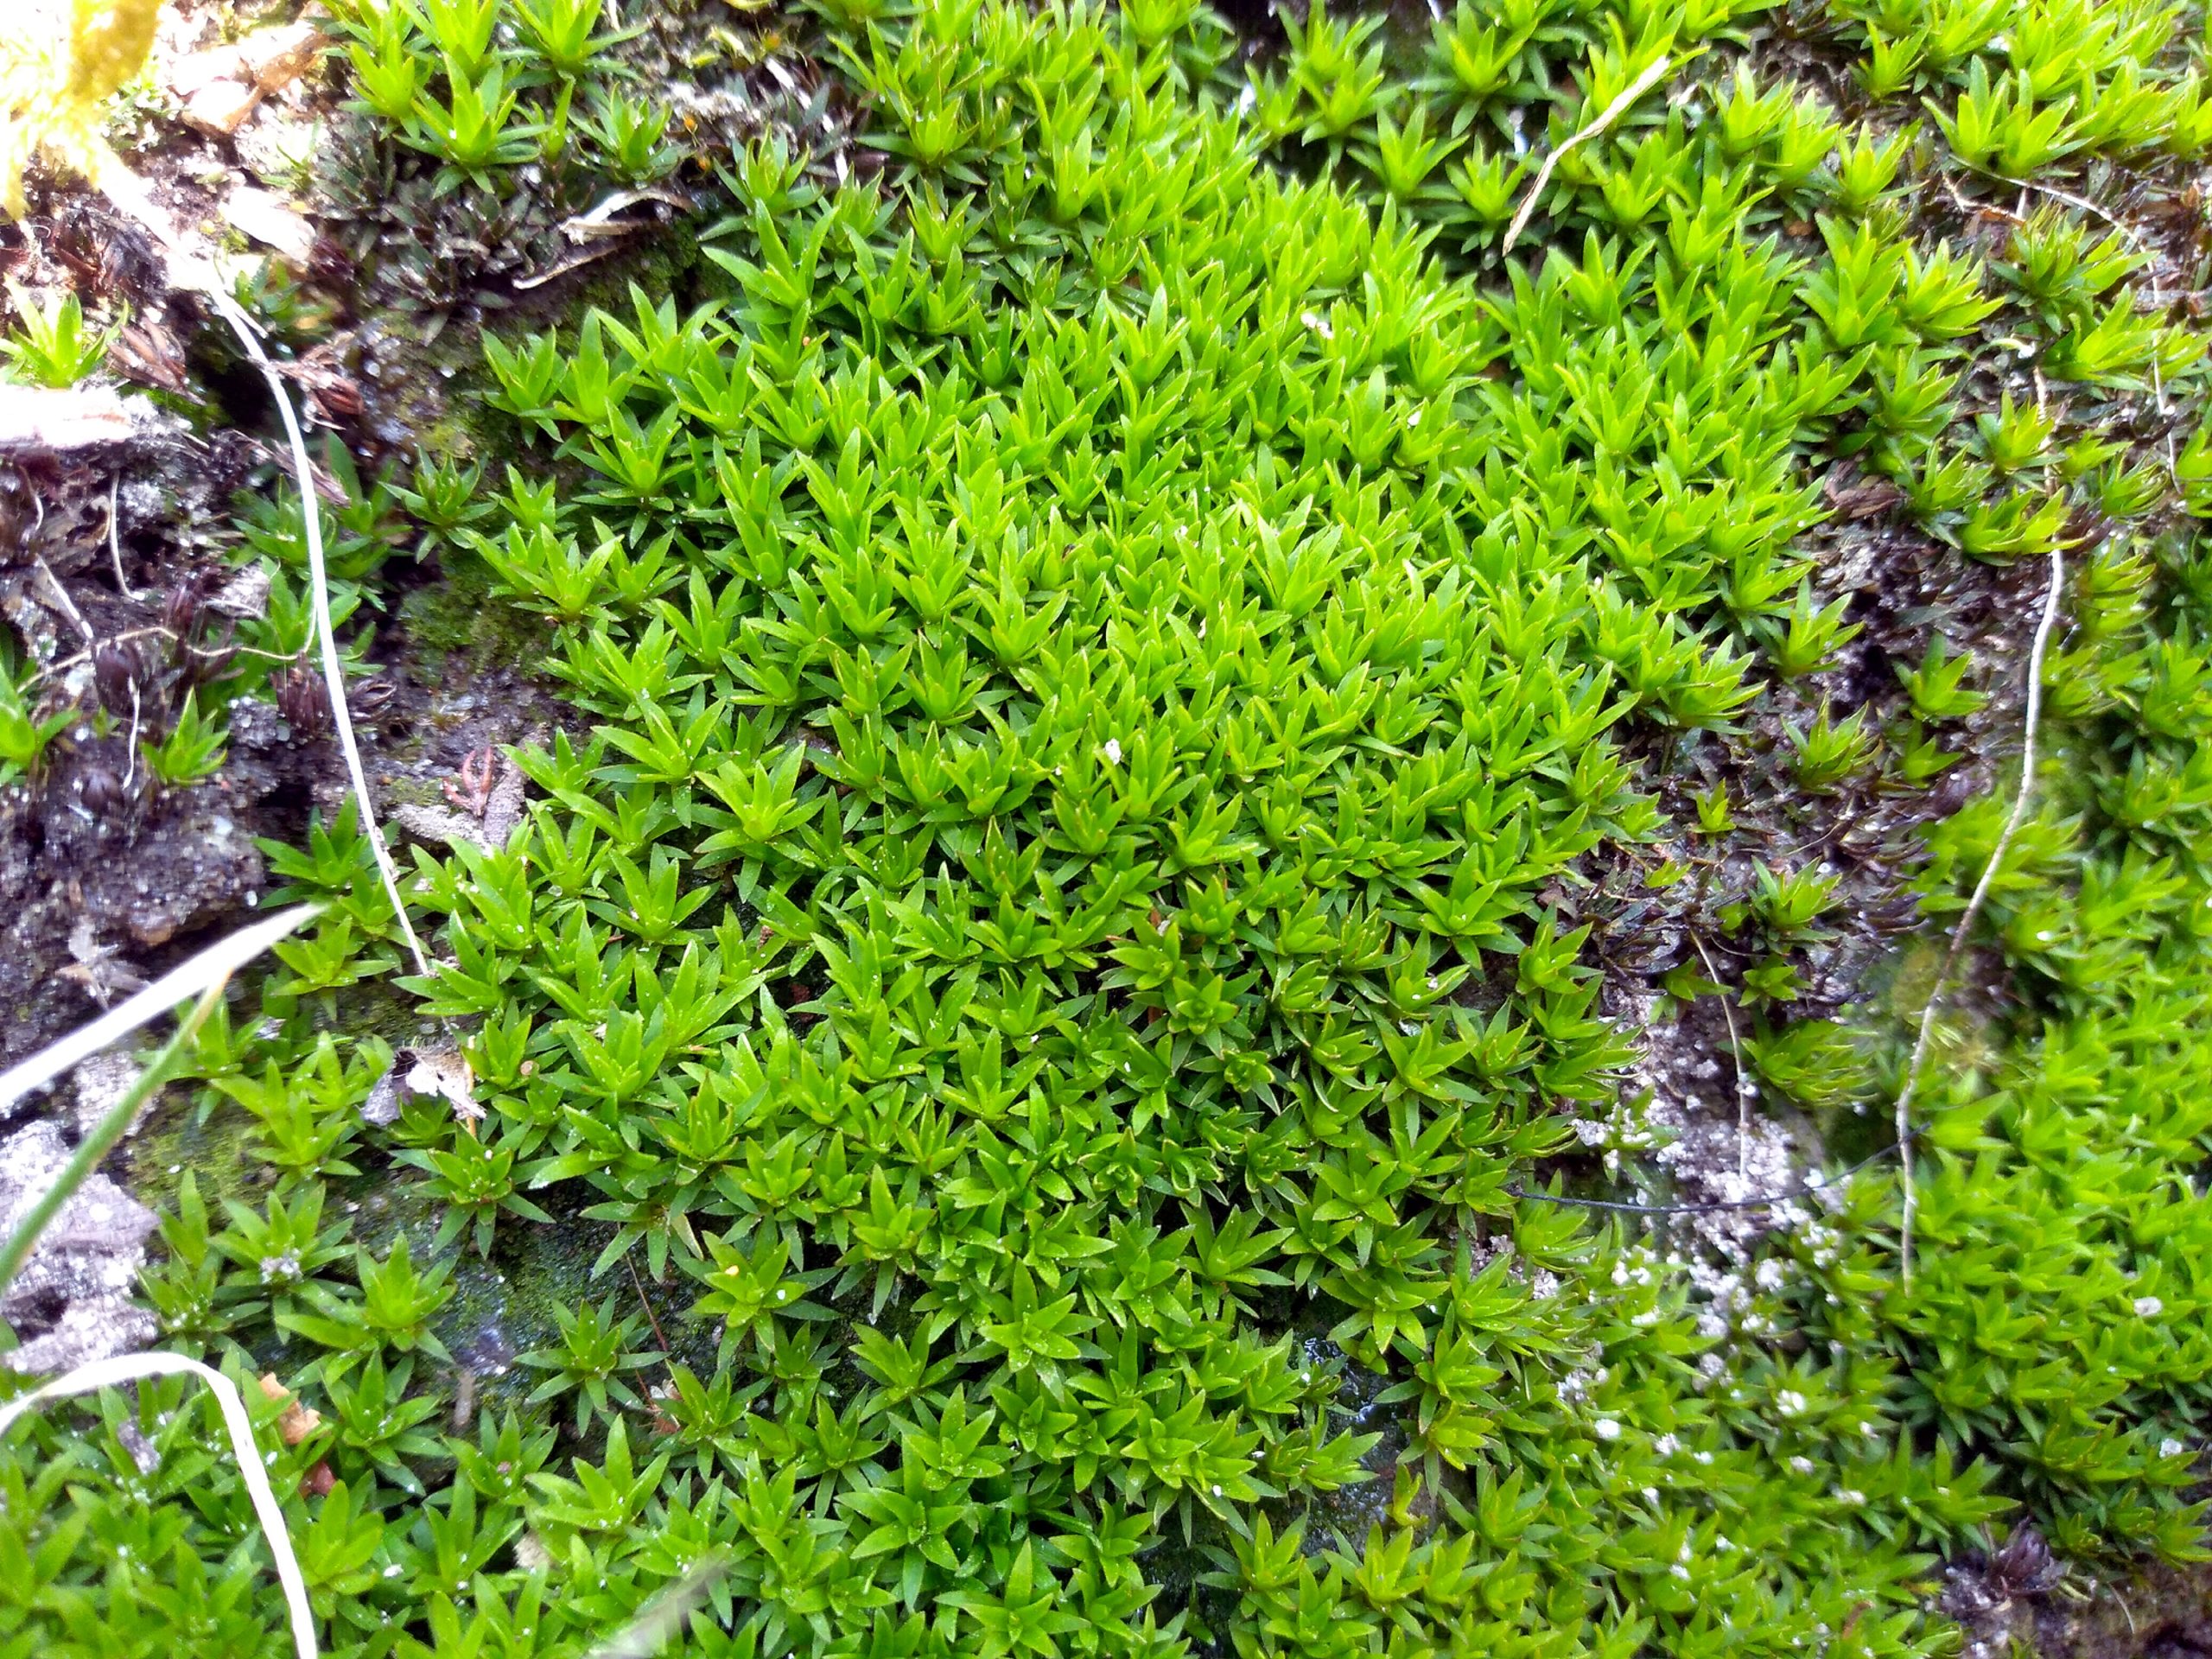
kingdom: Plantae
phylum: Bryophyta
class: Polytrichopsida
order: Polytrichales
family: Polytrichaceae
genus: Pogonatum
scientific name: Pogonatum nanum
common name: Dværg-urnekapsel
